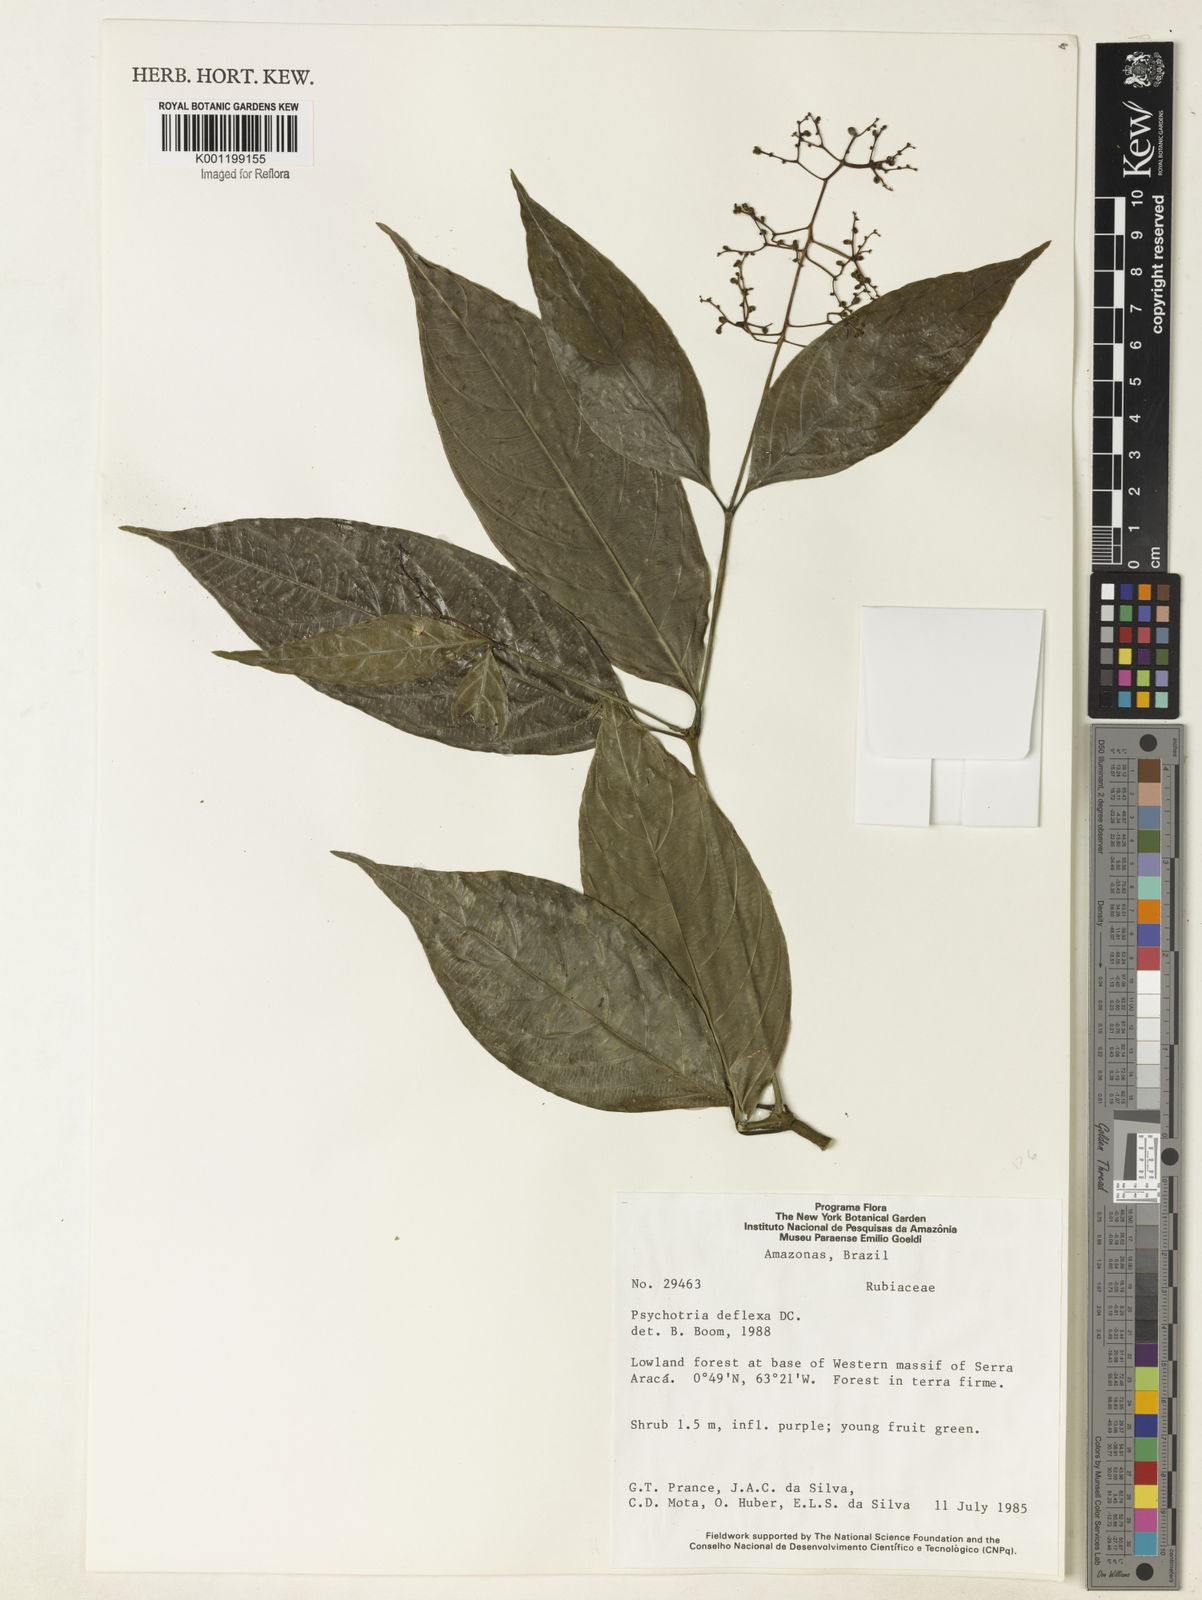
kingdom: Plantae
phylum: Tracheophyta
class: Magnoliopsida
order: Gentianales
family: Rubiaceae
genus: Palicourea
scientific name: Palicourea deflexa
